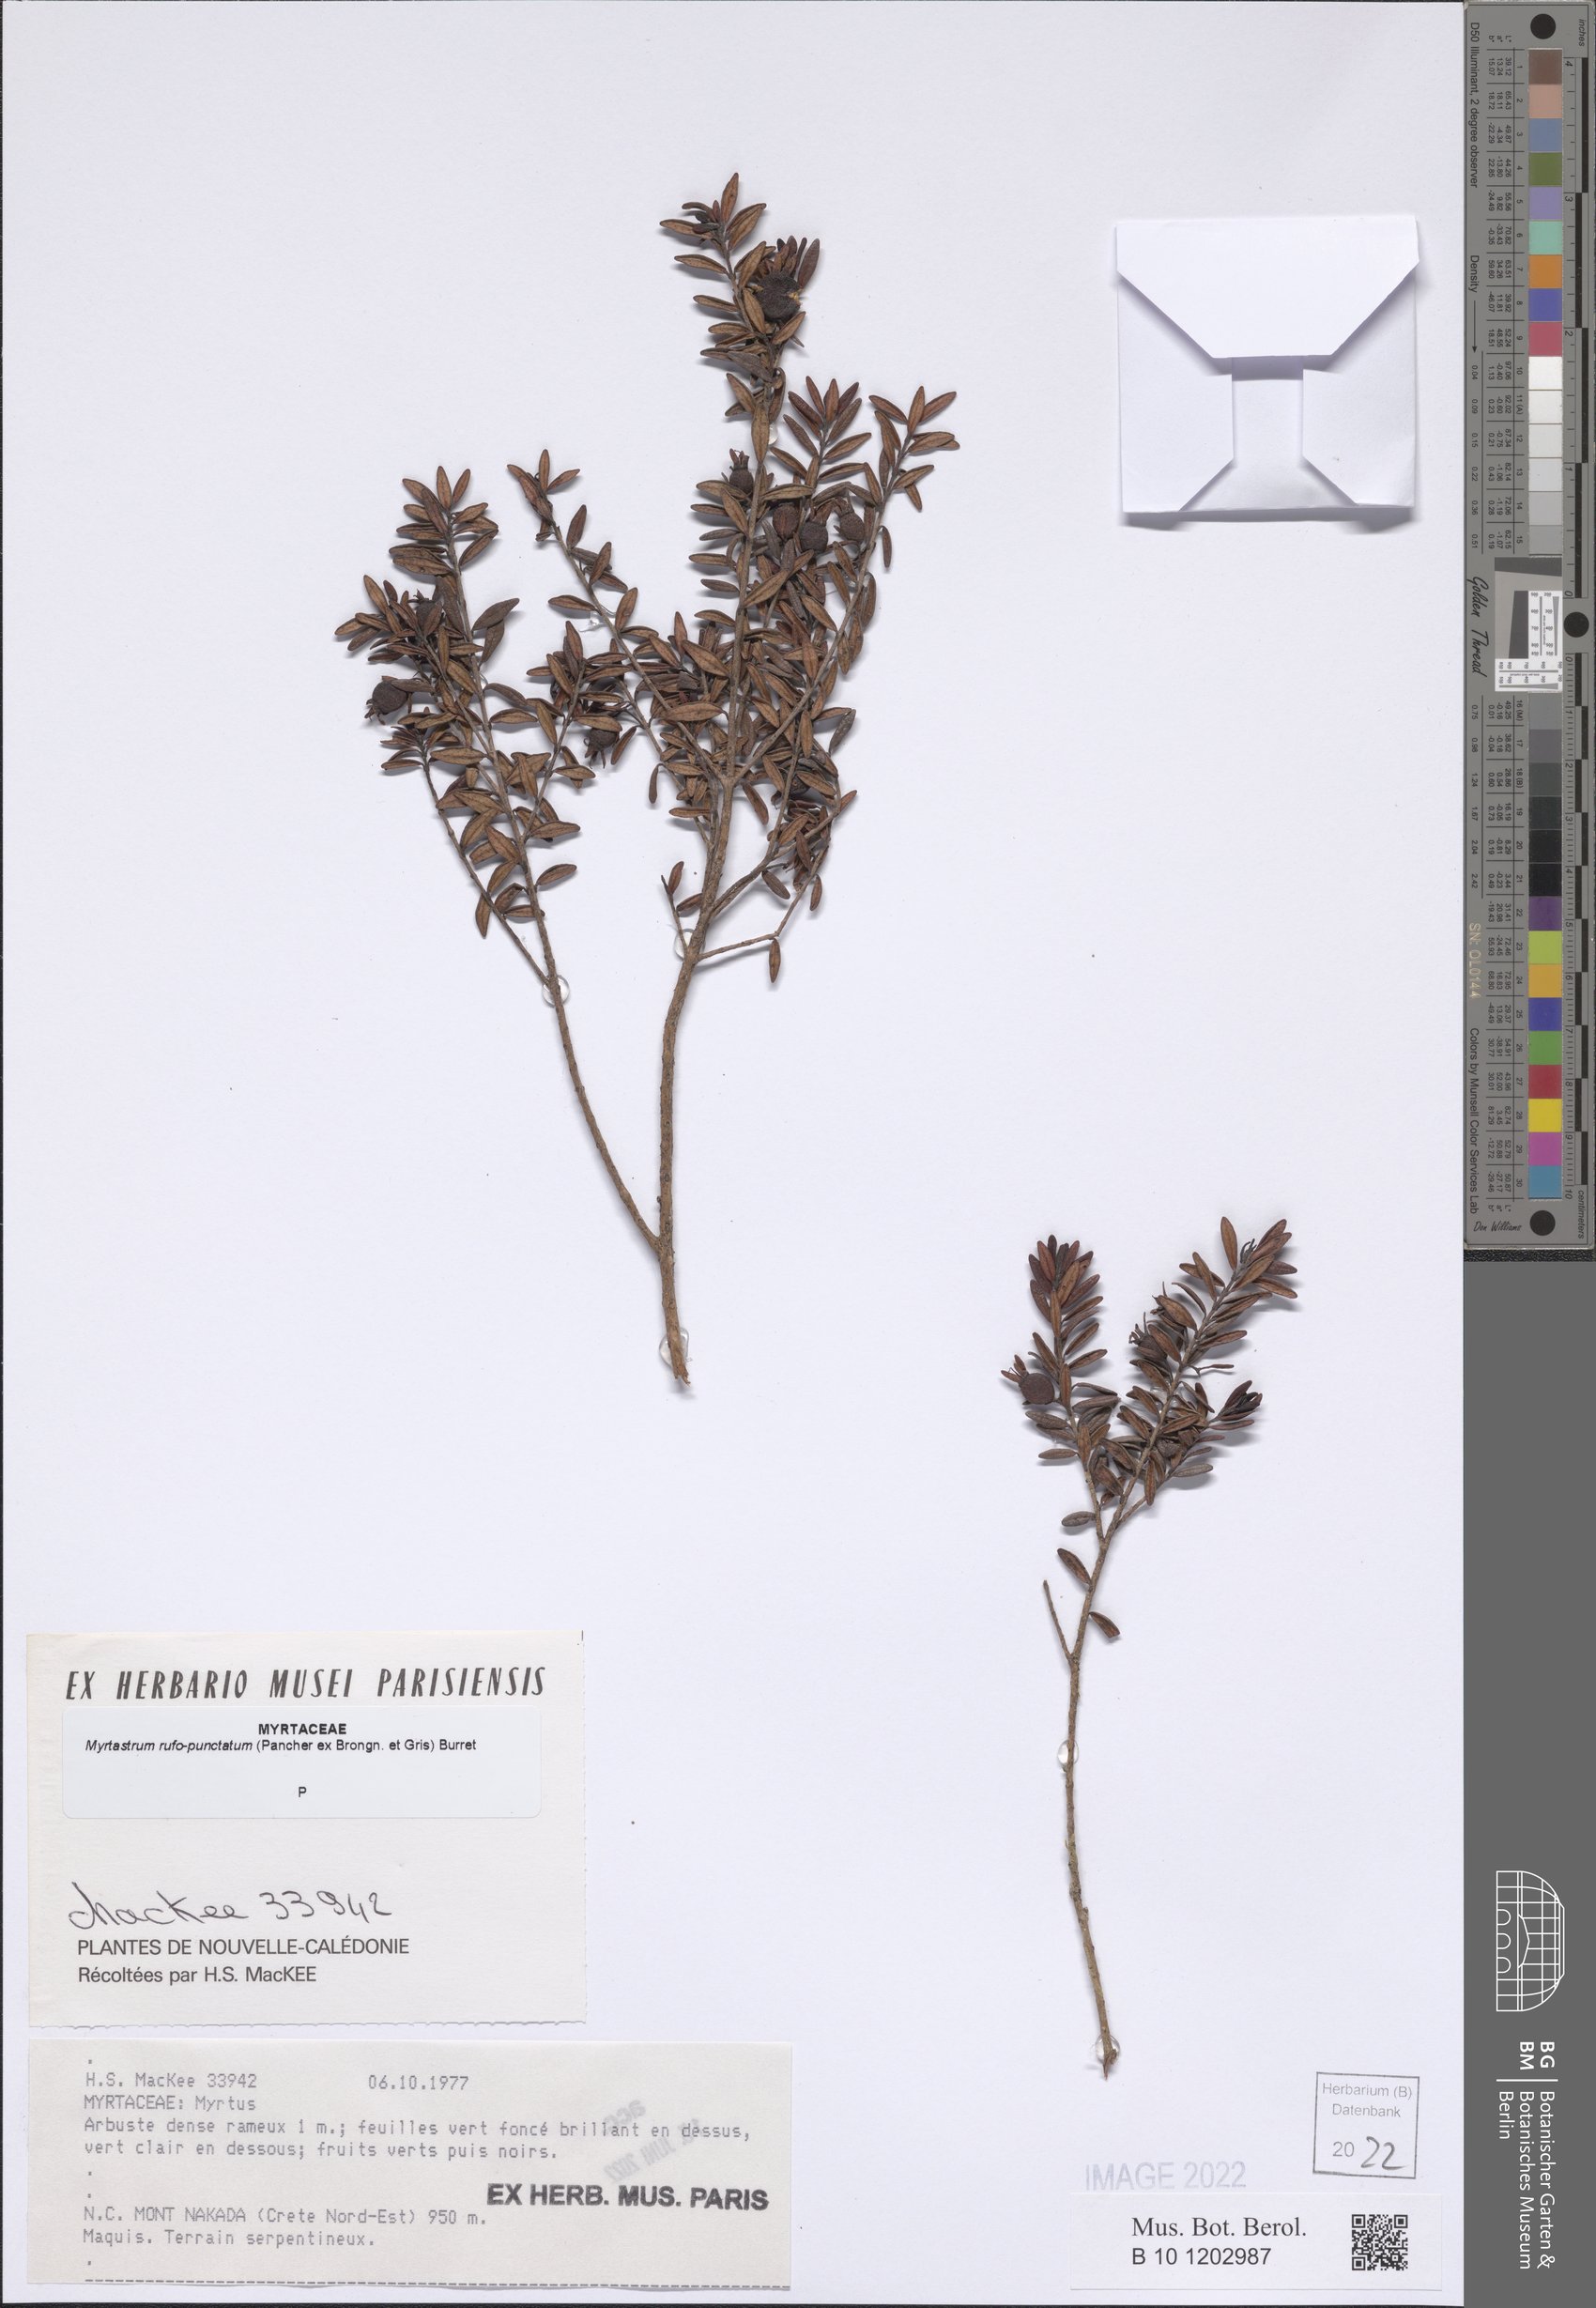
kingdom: Plantae
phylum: Tracheophyta
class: Magnoliopsida
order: Myrtales
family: Myrtaceae
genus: Myrtastrum
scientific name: Myrtastrum rufopunctatum
